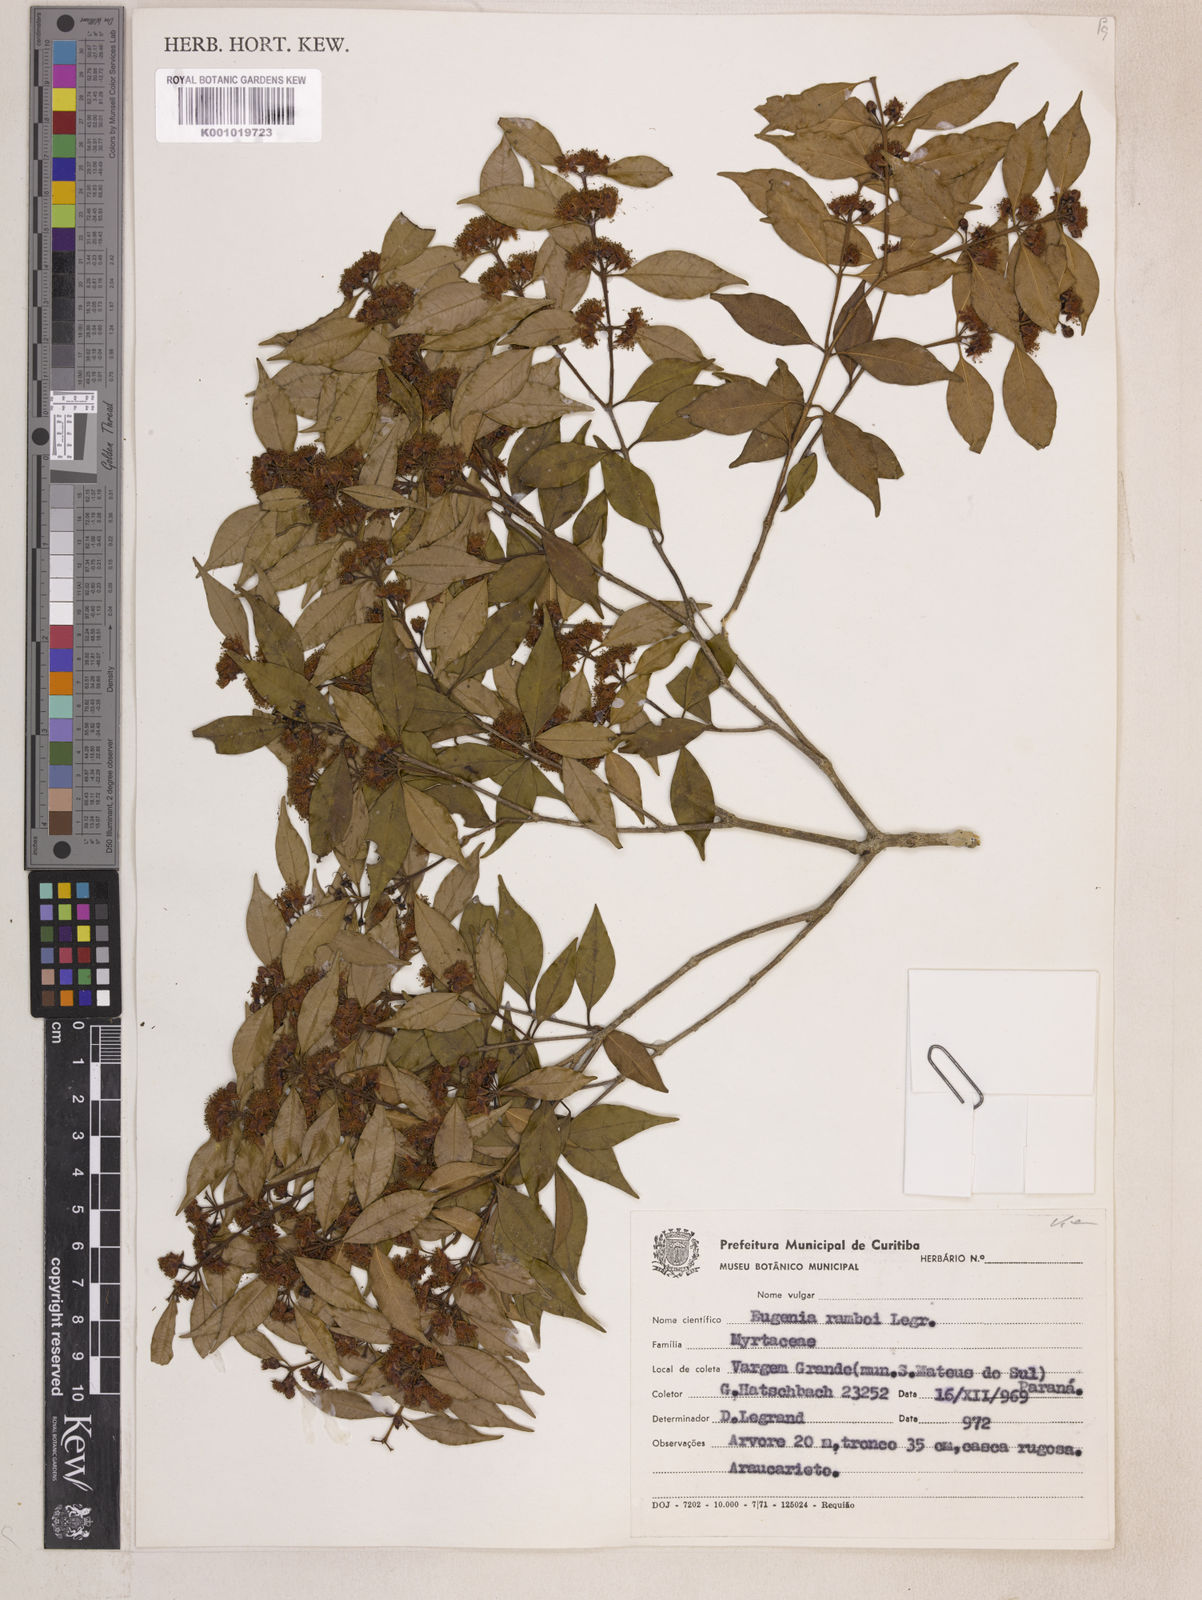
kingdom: Plantae
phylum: Tracheophyta
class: Magnoliopsida
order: Myrtales
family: Myrtaceae
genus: Eugenia
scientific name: Eugenia ramboi
